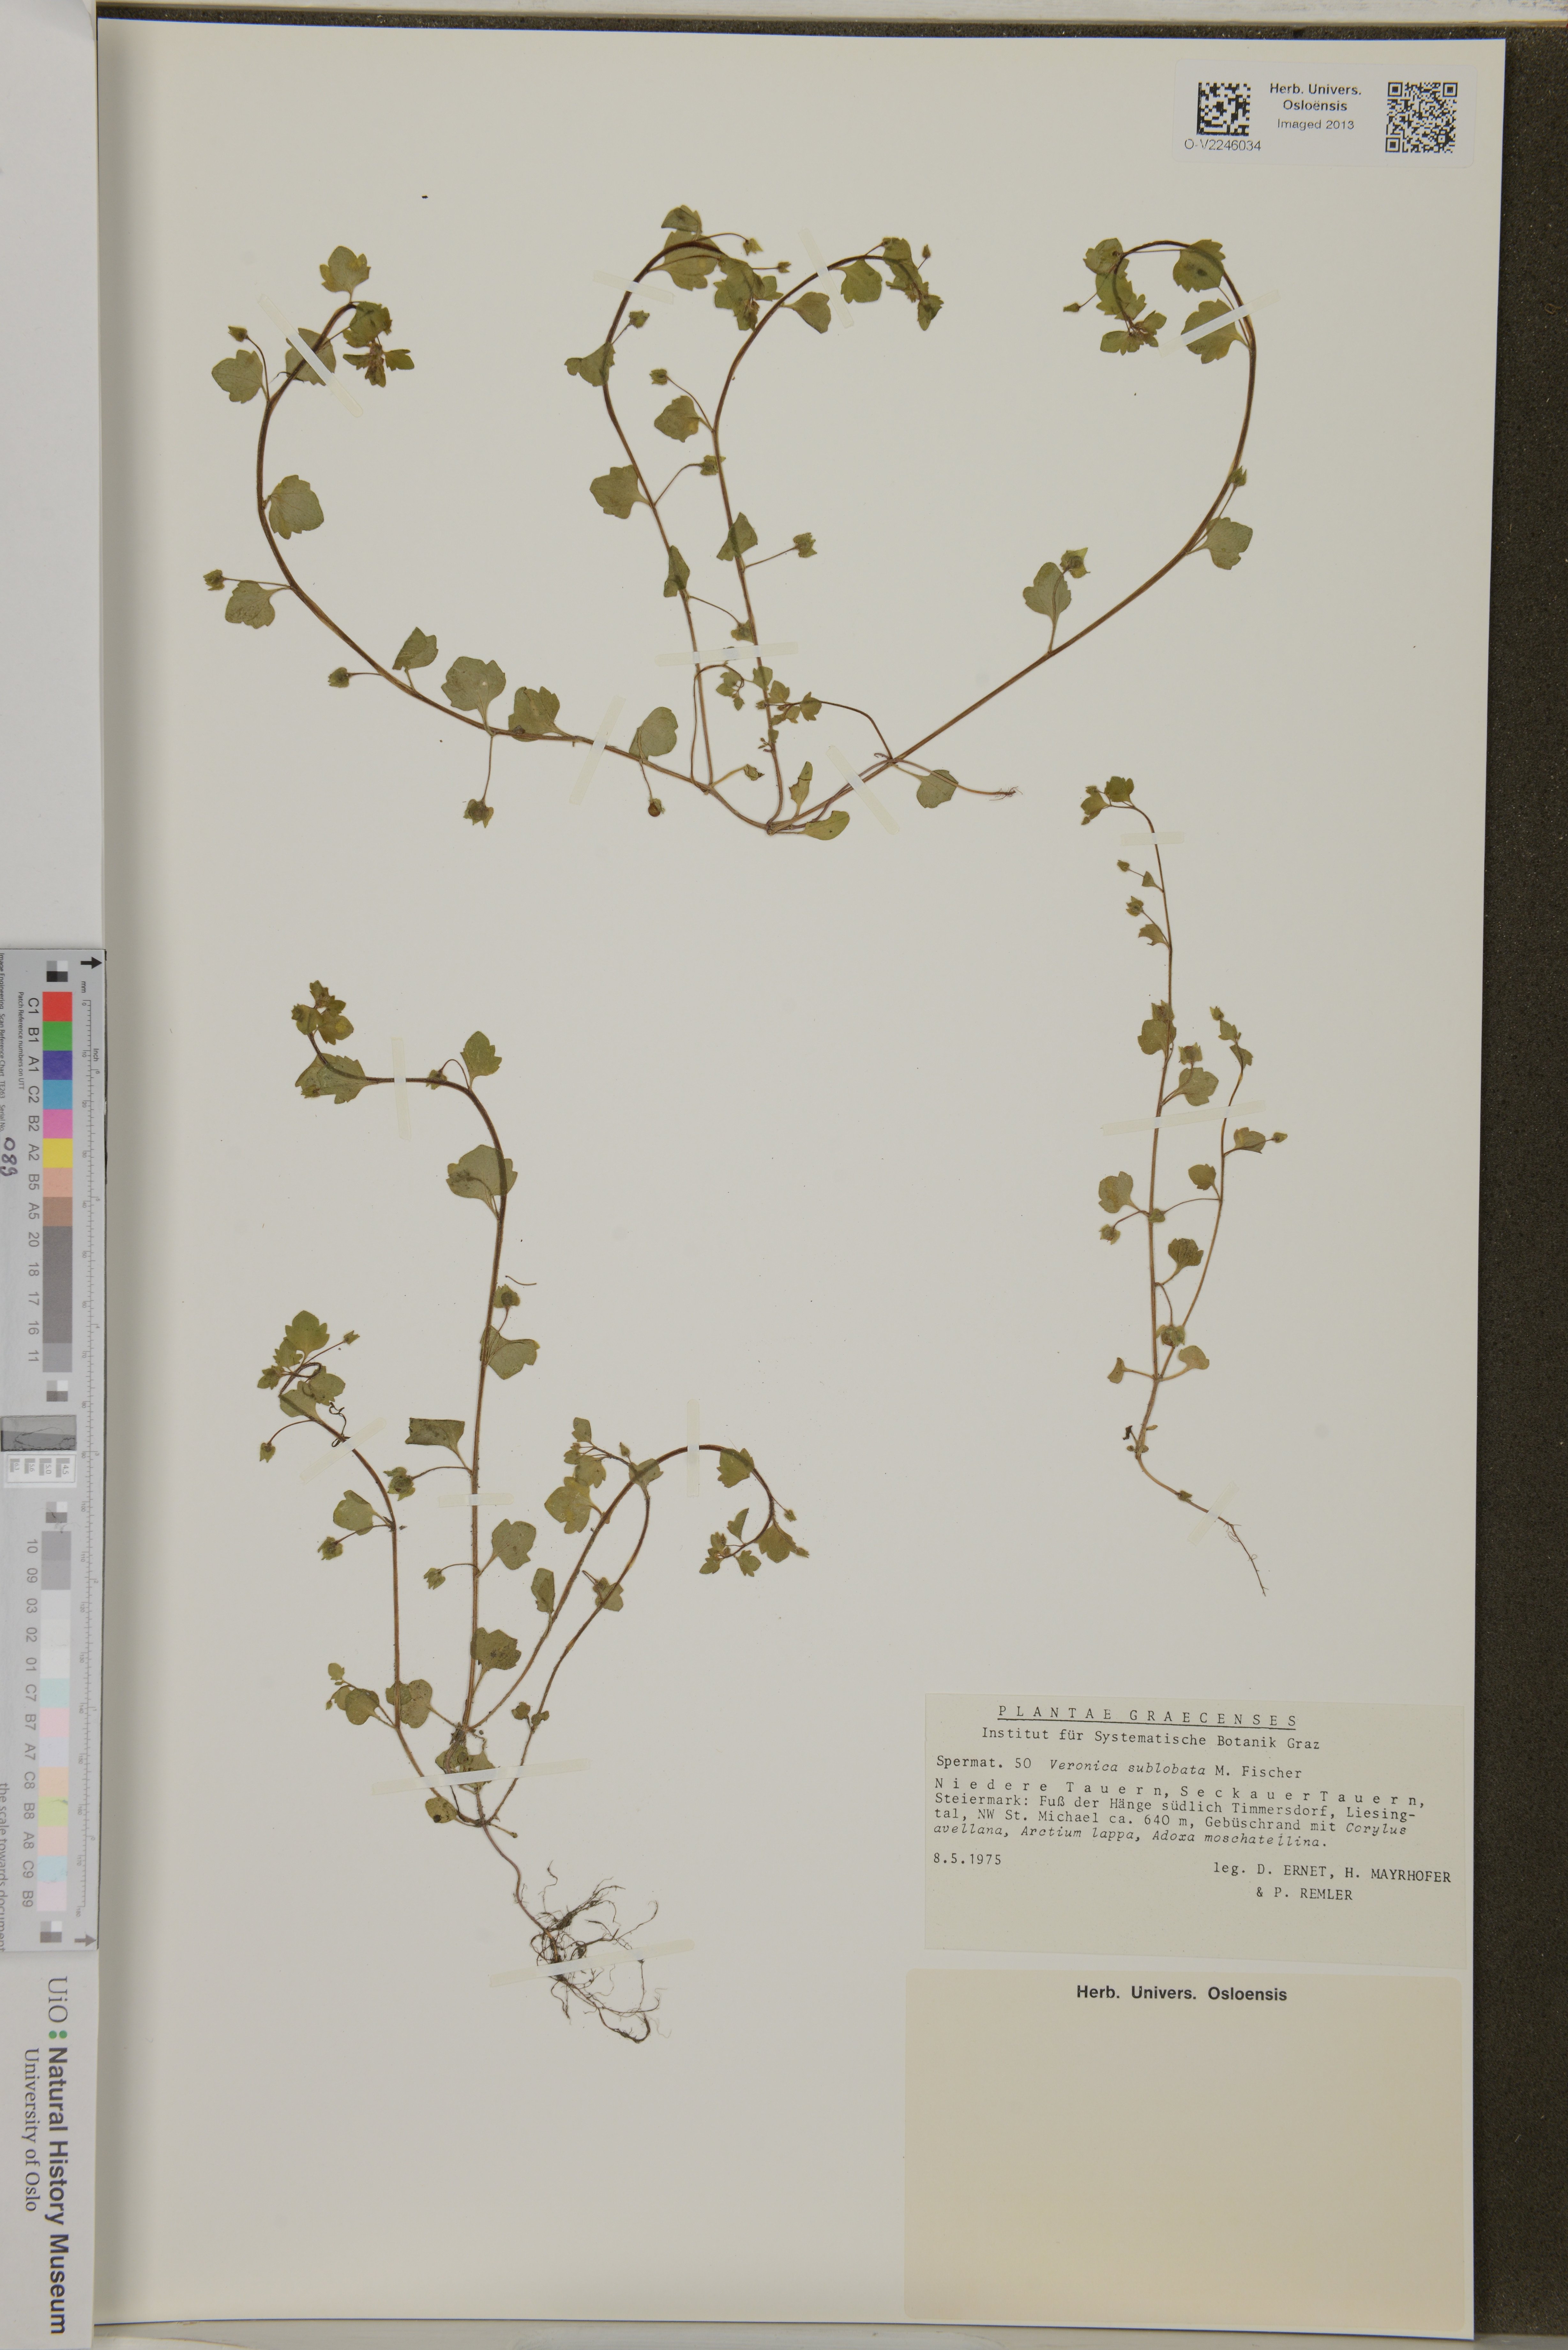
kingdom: Plantae
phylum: Tracheophyta
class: Magnoliopsida
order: Lamiales
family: Plantaginaceae
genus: Veronica
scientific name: Veronica sublobata
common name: False ivy-leaved speedwell
